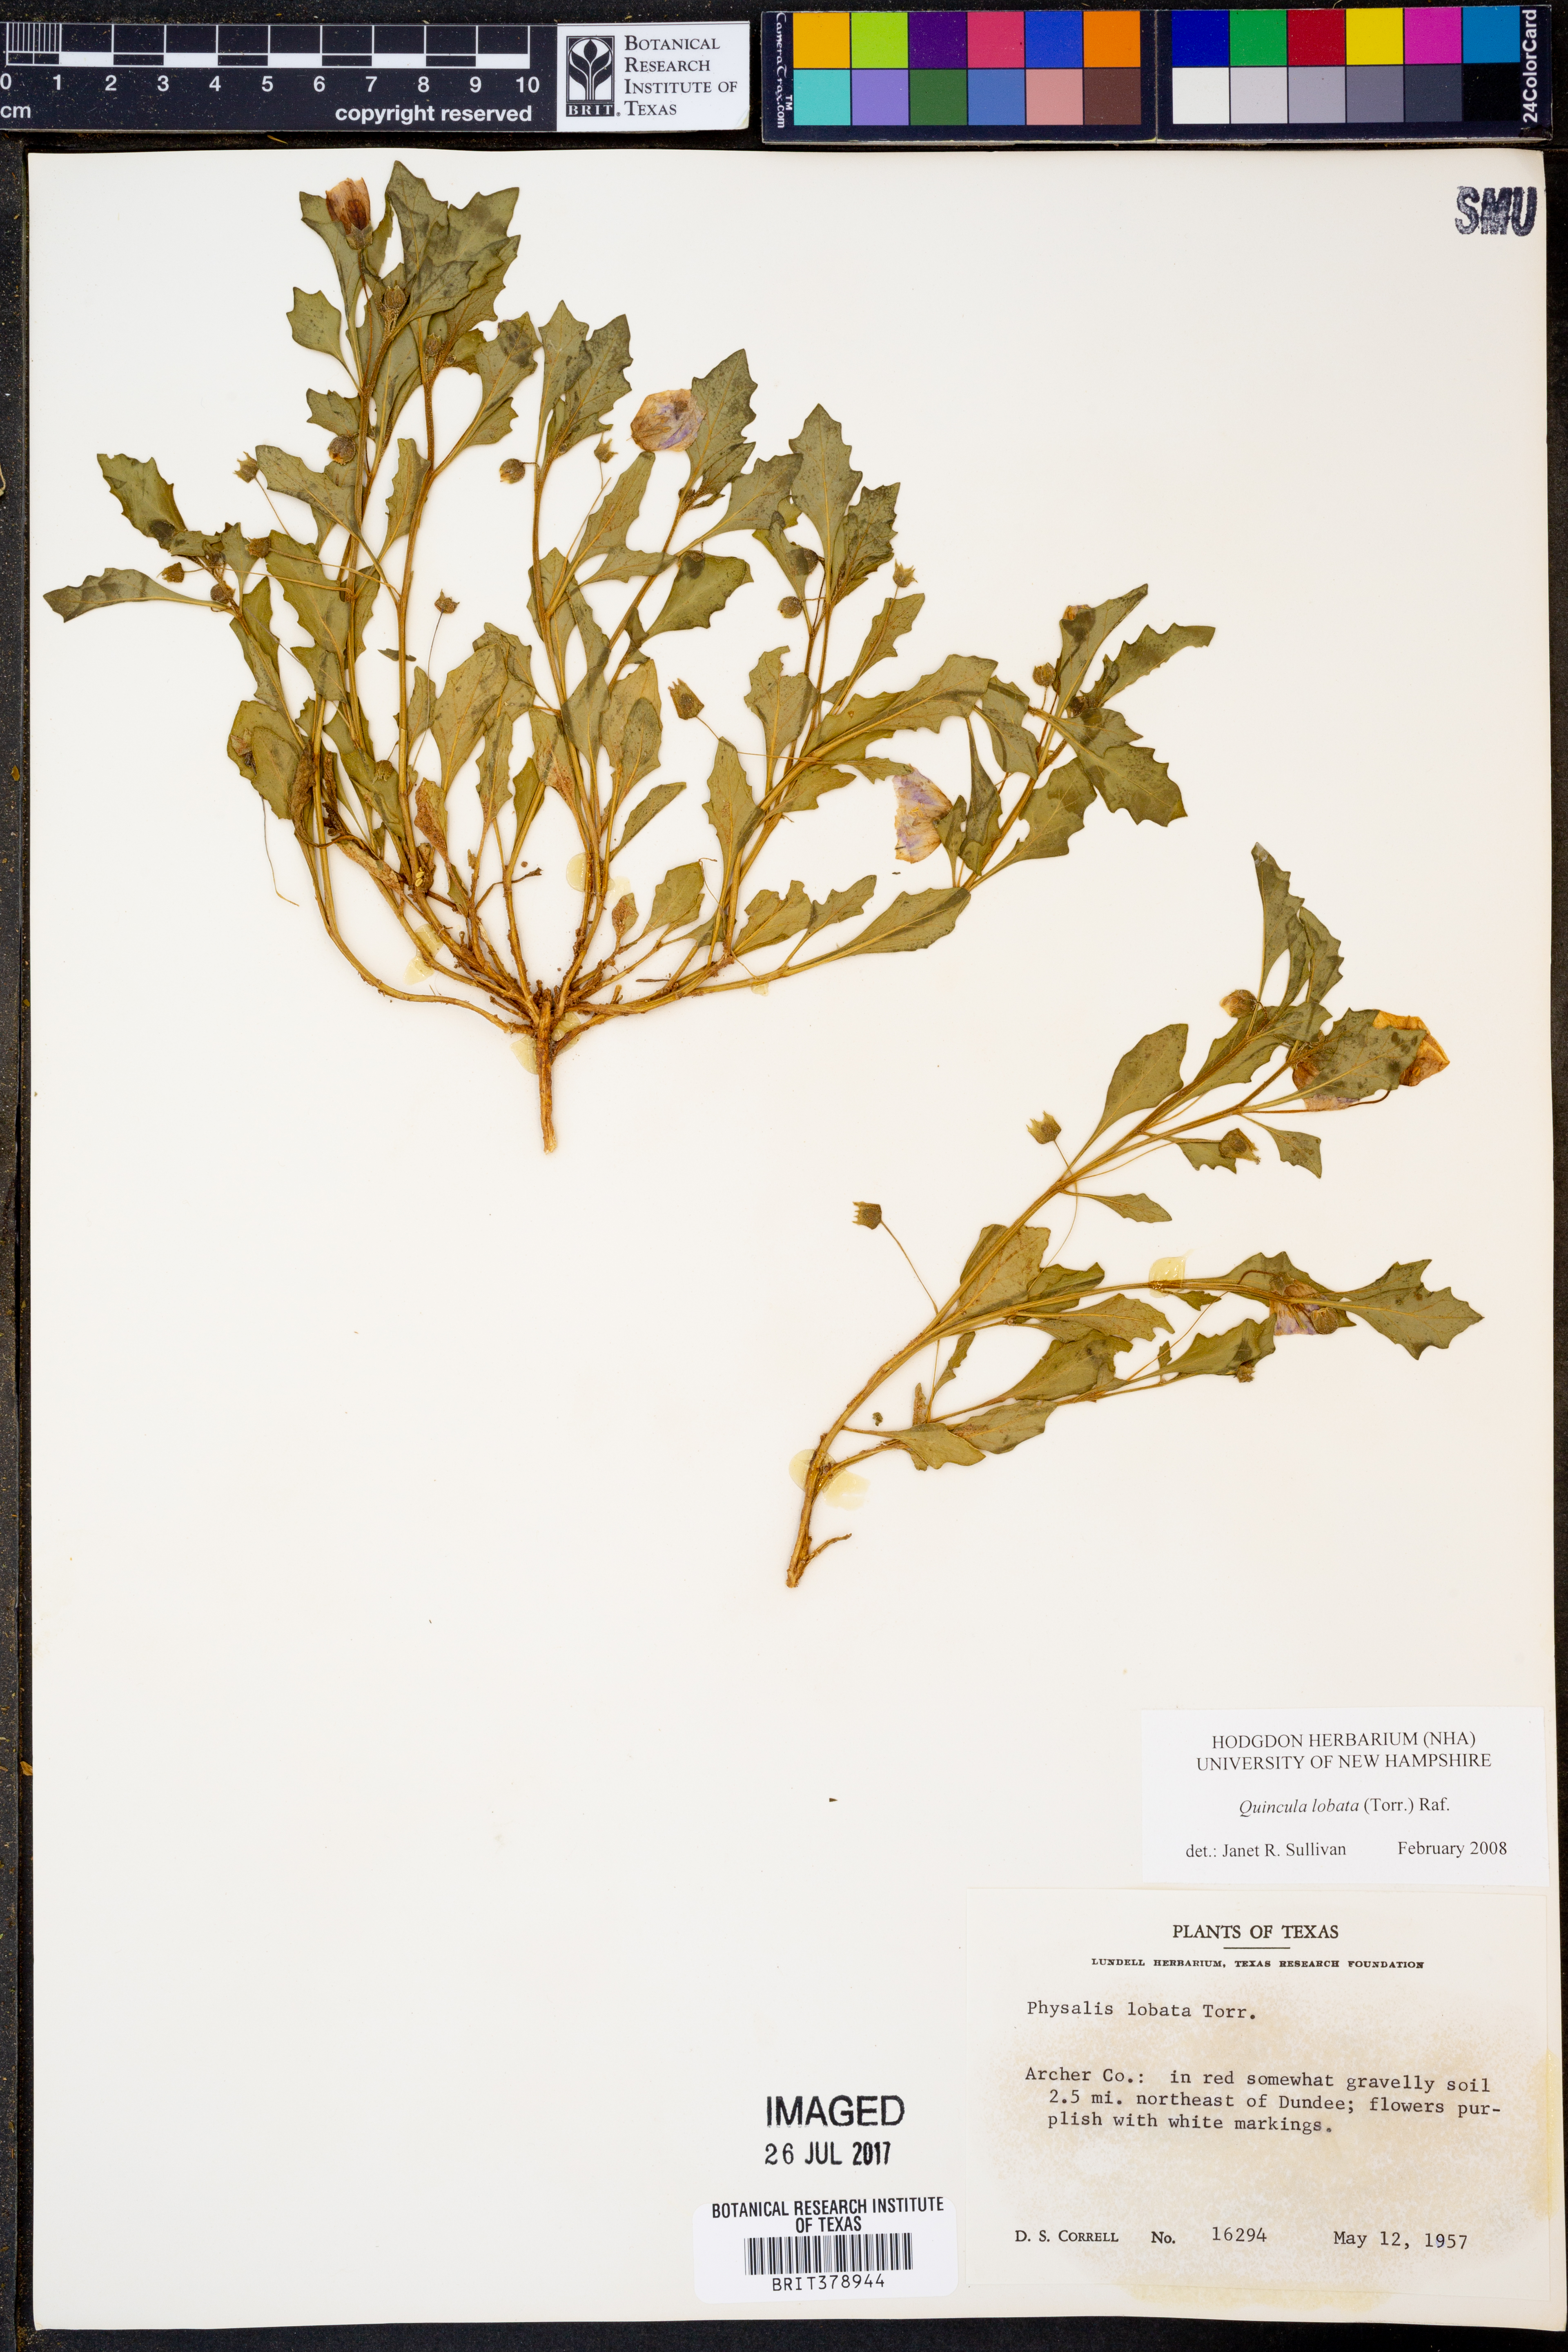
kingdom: Plantae
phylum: Tracheophyta
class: Magnoliopsida
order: Solanales
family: Solanaceae
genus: Quincula
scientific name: Quincula lobata
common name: Purple-ground-cherry
